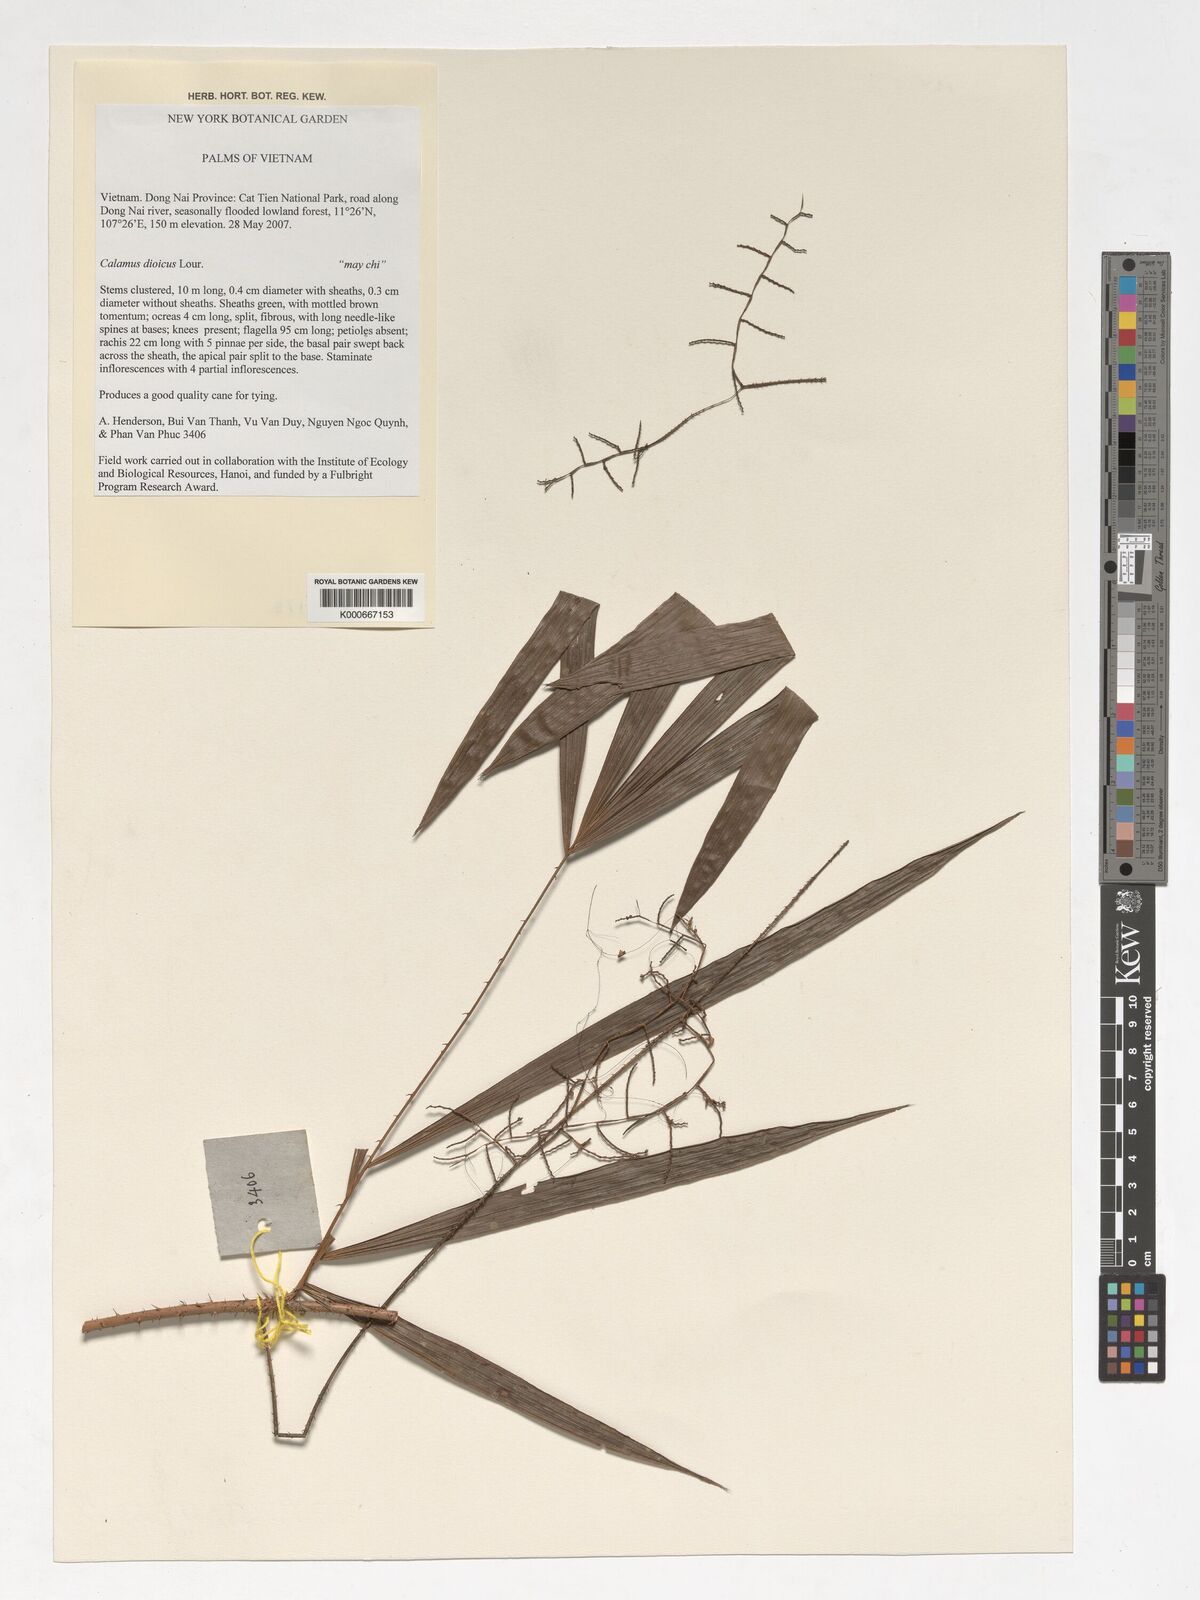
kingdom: Plantae
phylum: Tracheophyta
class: Liliopsida
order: Arecales
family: Arecaceae
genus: Calamus
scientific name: Calamus dioicus
